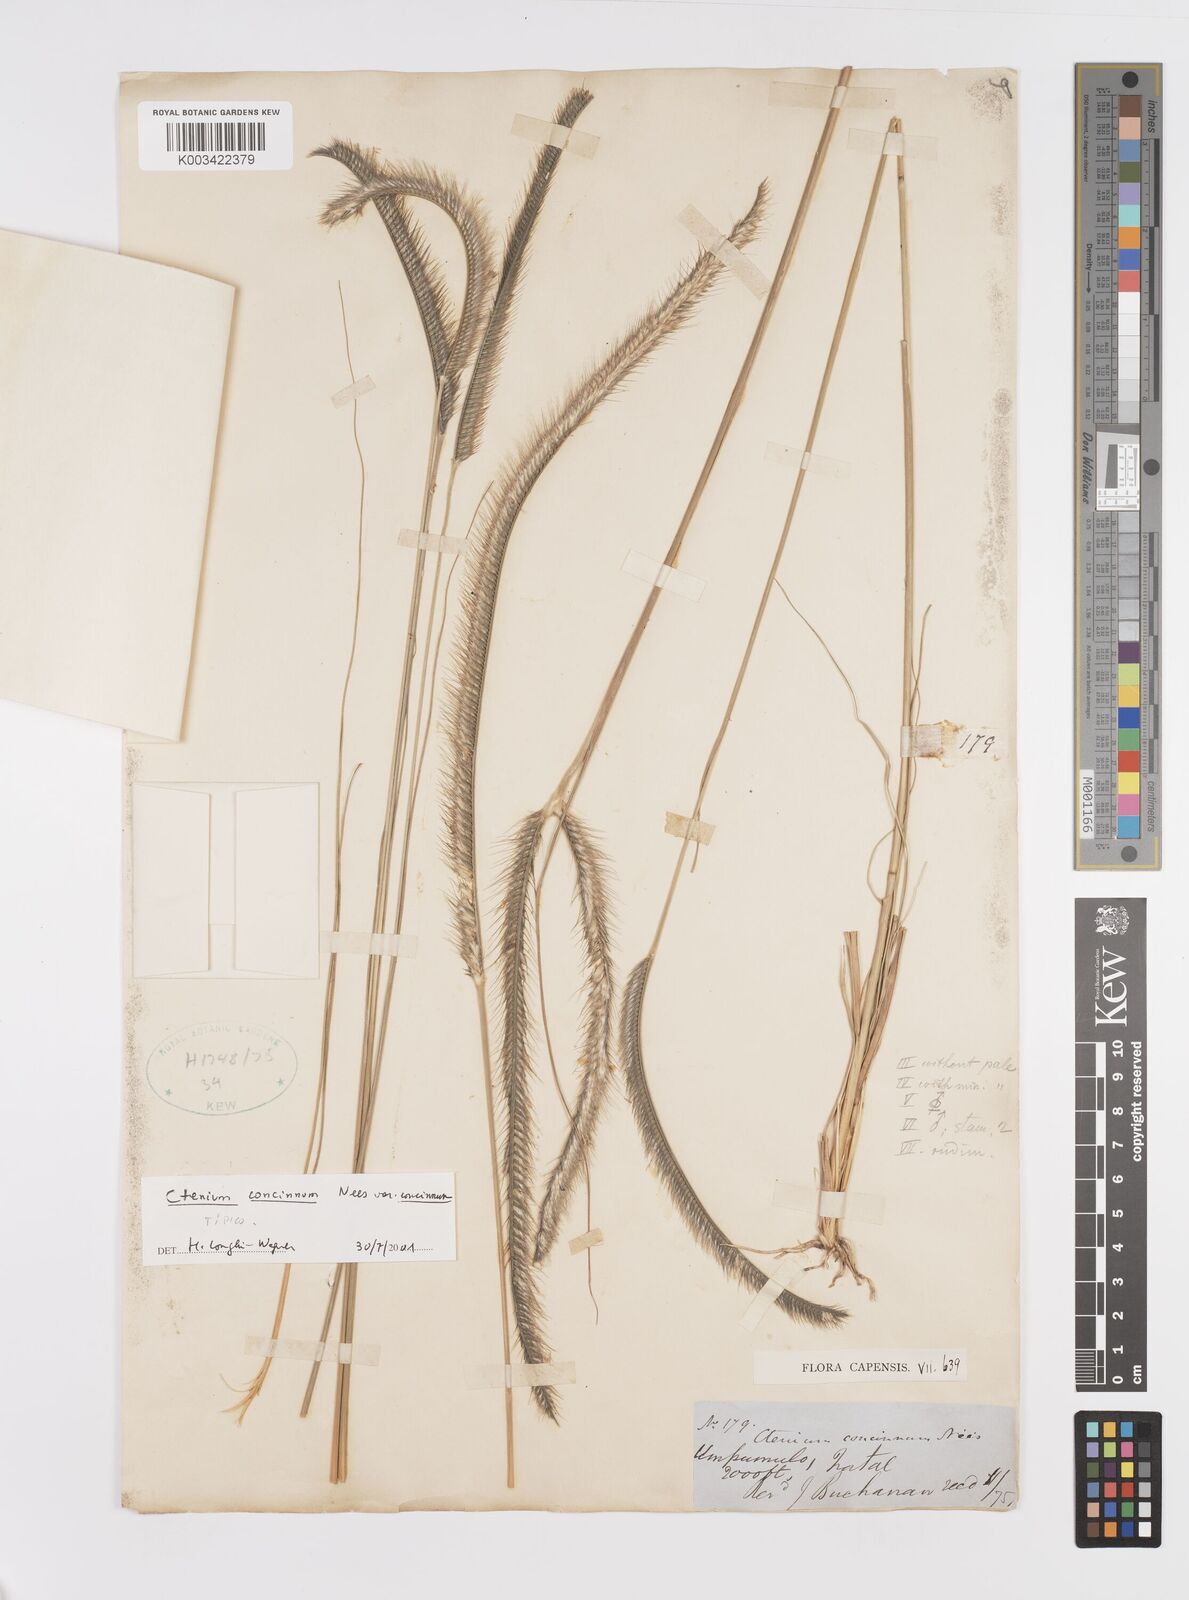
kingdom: Plantae
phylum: Tracheophyta
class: Liliopsida
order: Poales
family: Poaceae
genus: Ctenium
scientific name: Ctenium concinnum
